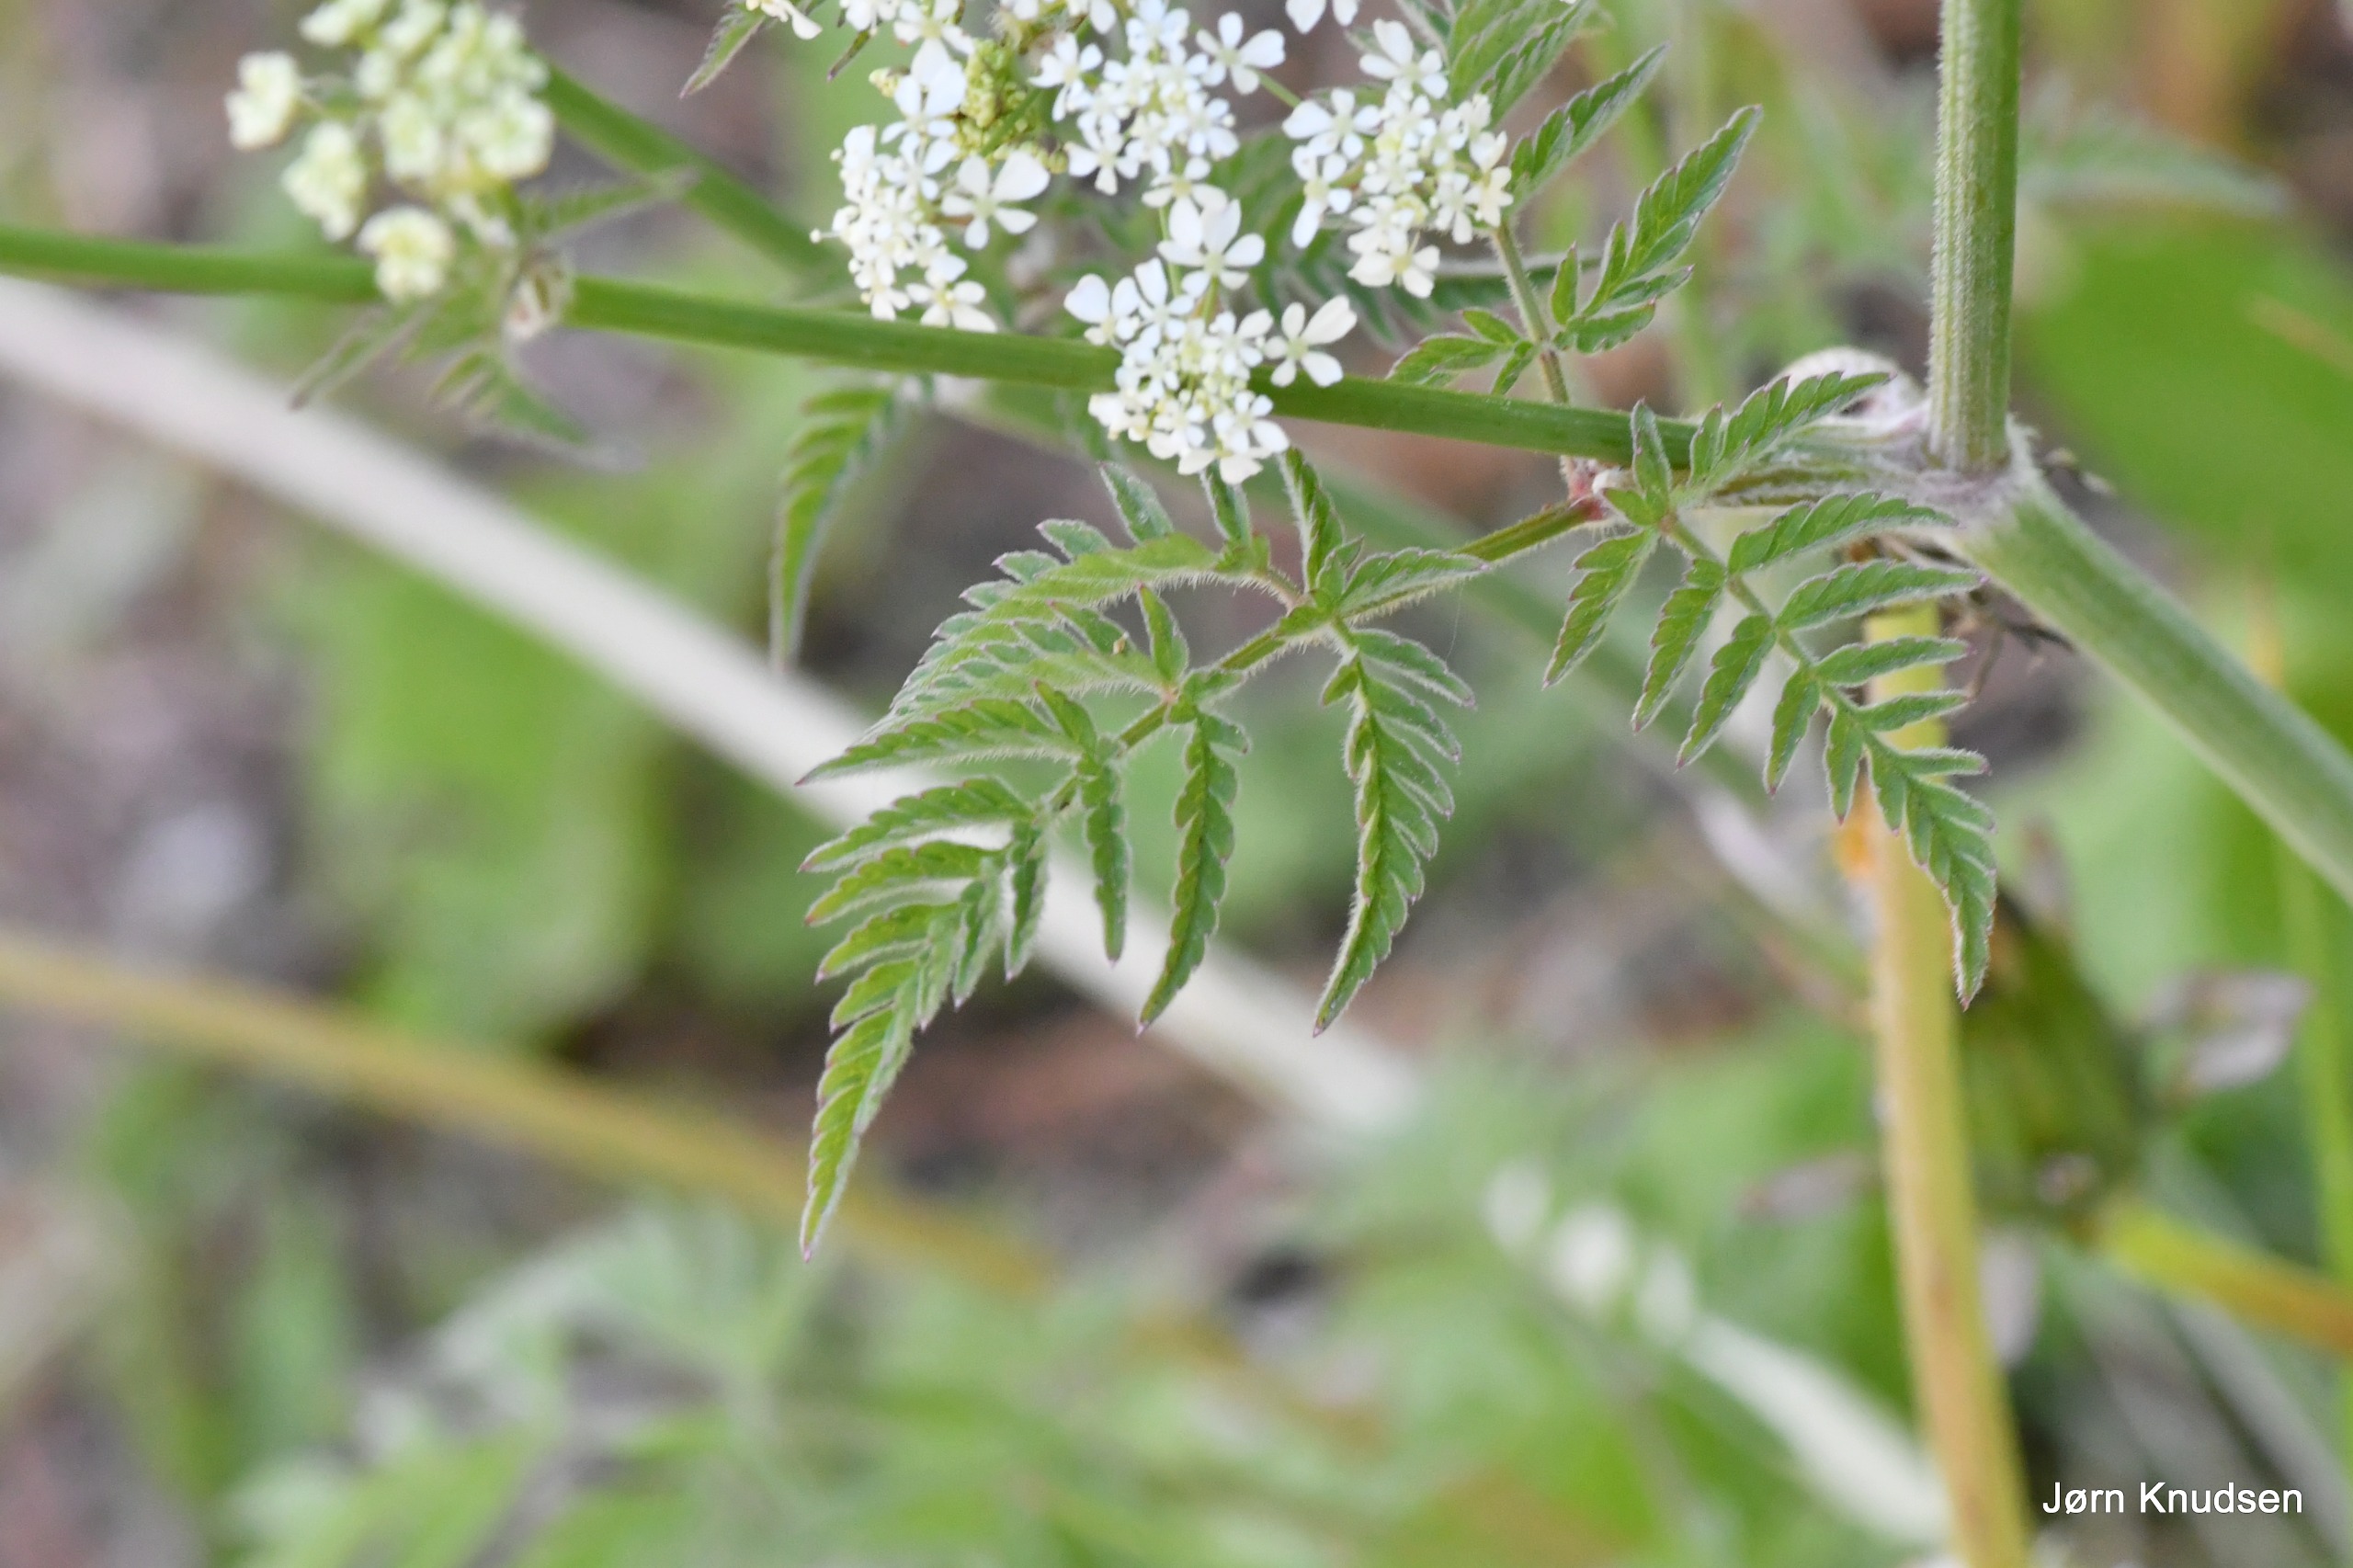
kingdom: Plantae
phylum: Tracheophyta
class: Magnoliopsida
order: Apiales
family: Apiaceae
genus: Anthriscus
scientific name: Anthriscus sylvestris
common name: Vild kørvel
